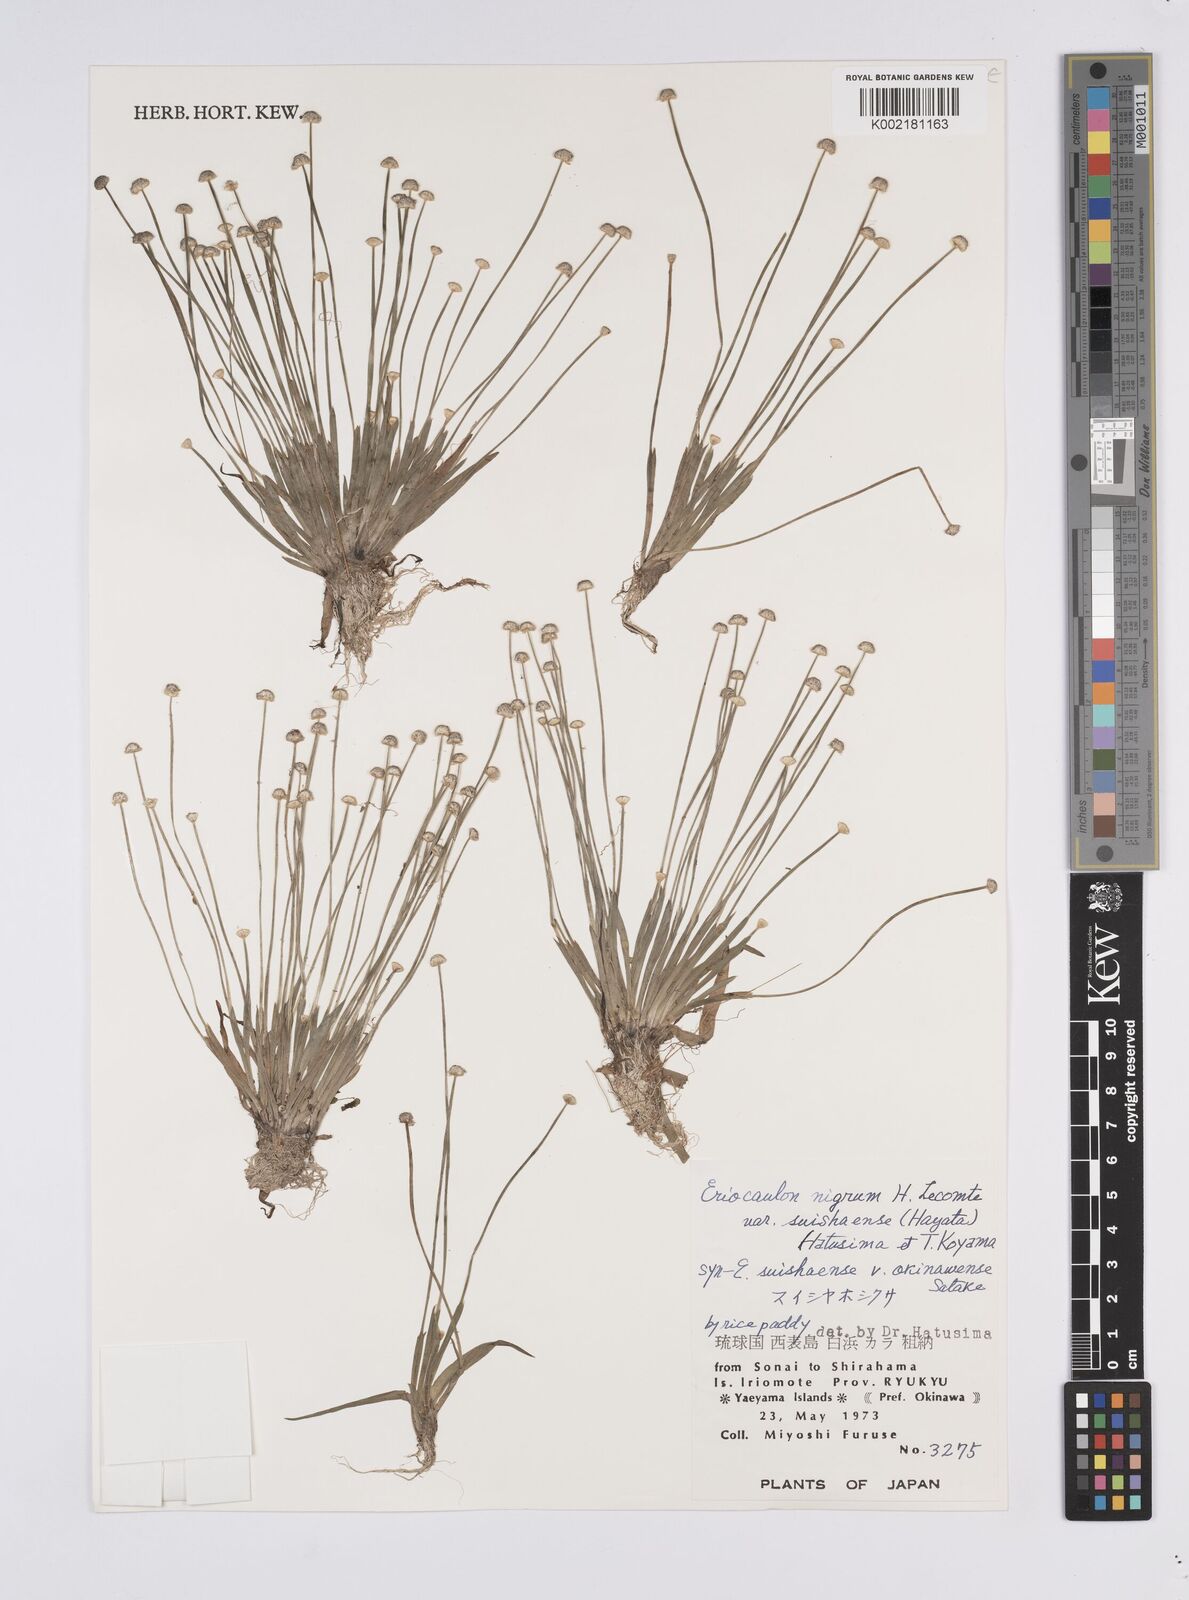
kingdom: Plantae
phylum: Tracheophyta
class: Liliopsida
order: Poales
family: Eriocaulaceae
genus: Eriocaulon
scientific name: Eriocaulon nigrum
